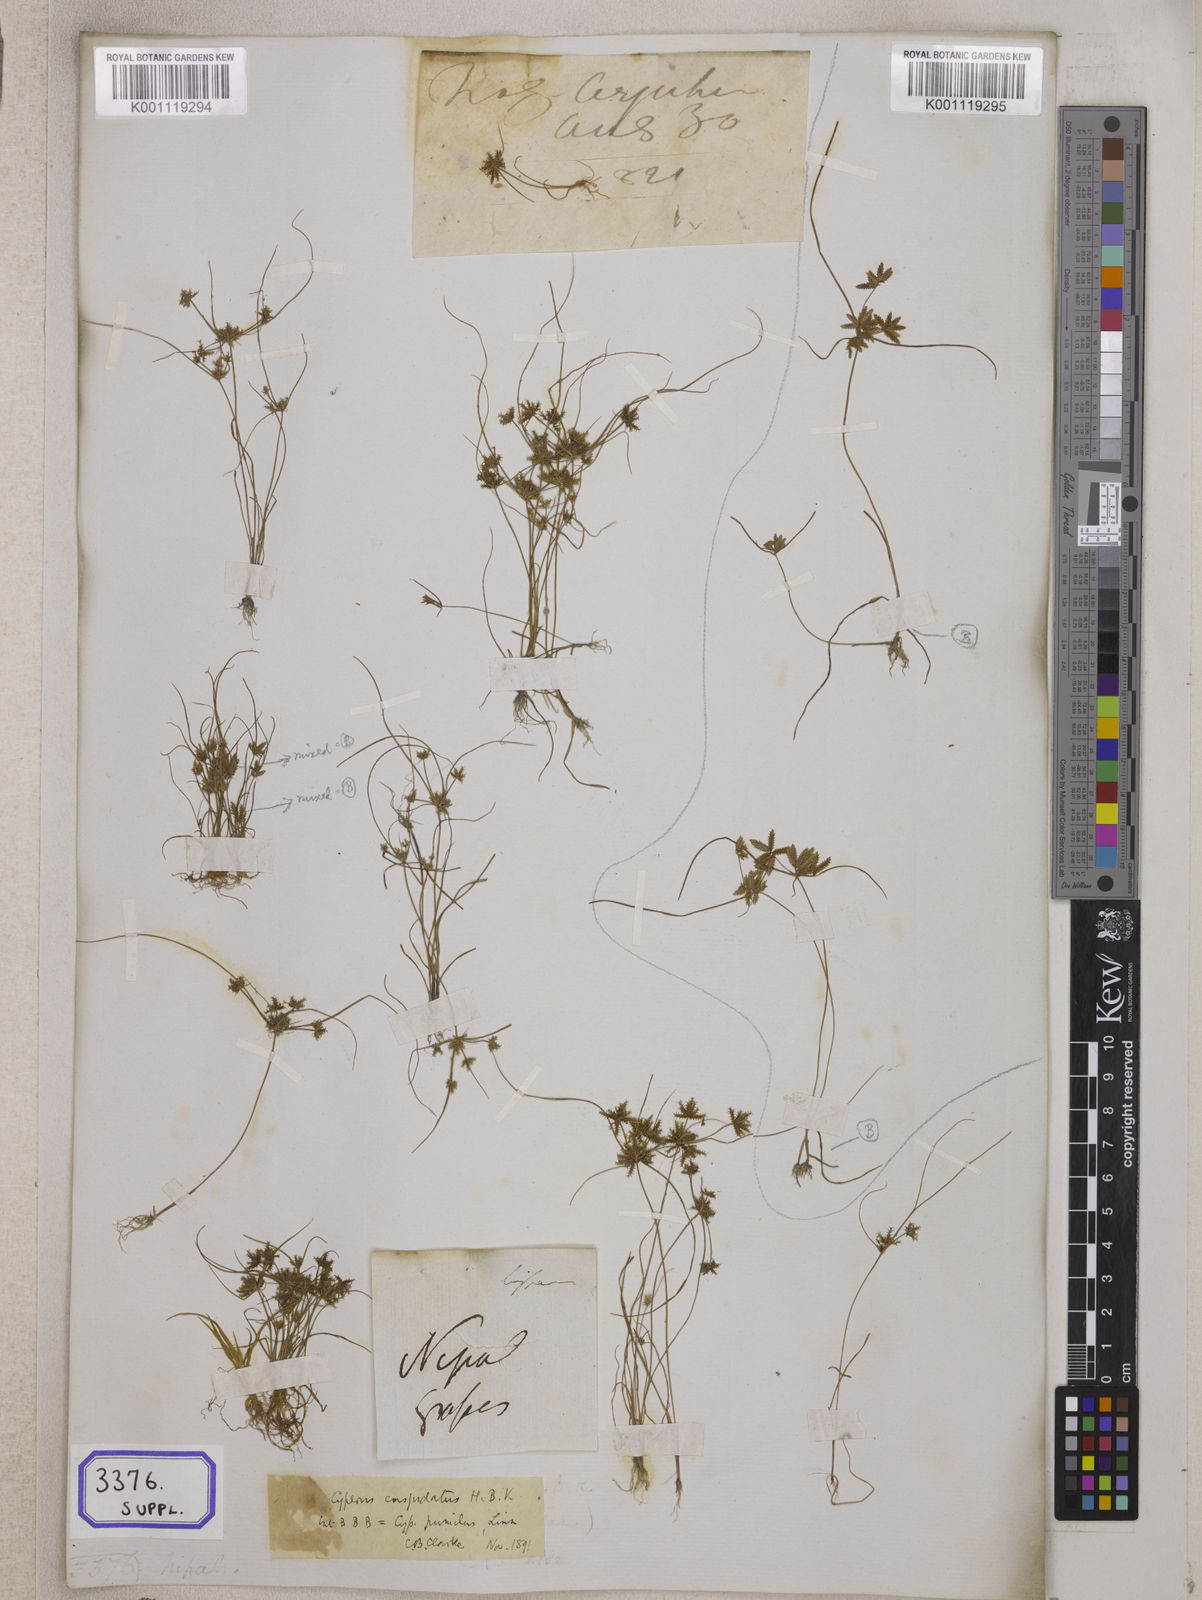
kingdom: Plantae
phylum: Tracheophyta
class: Liliopsida
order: Poales
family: Cyperaceae
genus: Cyperus
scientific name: Cyperus
